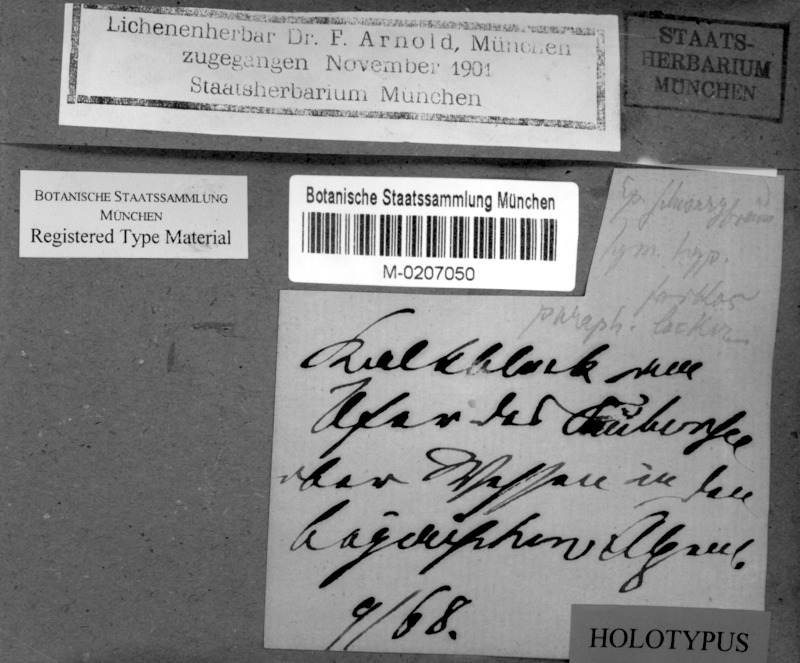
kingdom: Fungi
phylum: Ascomycota
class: Lecanoromycetes
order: Hymeneliales
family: Hymeneliaceae
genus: Hymenelia
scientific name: Hymenelia carnosula
